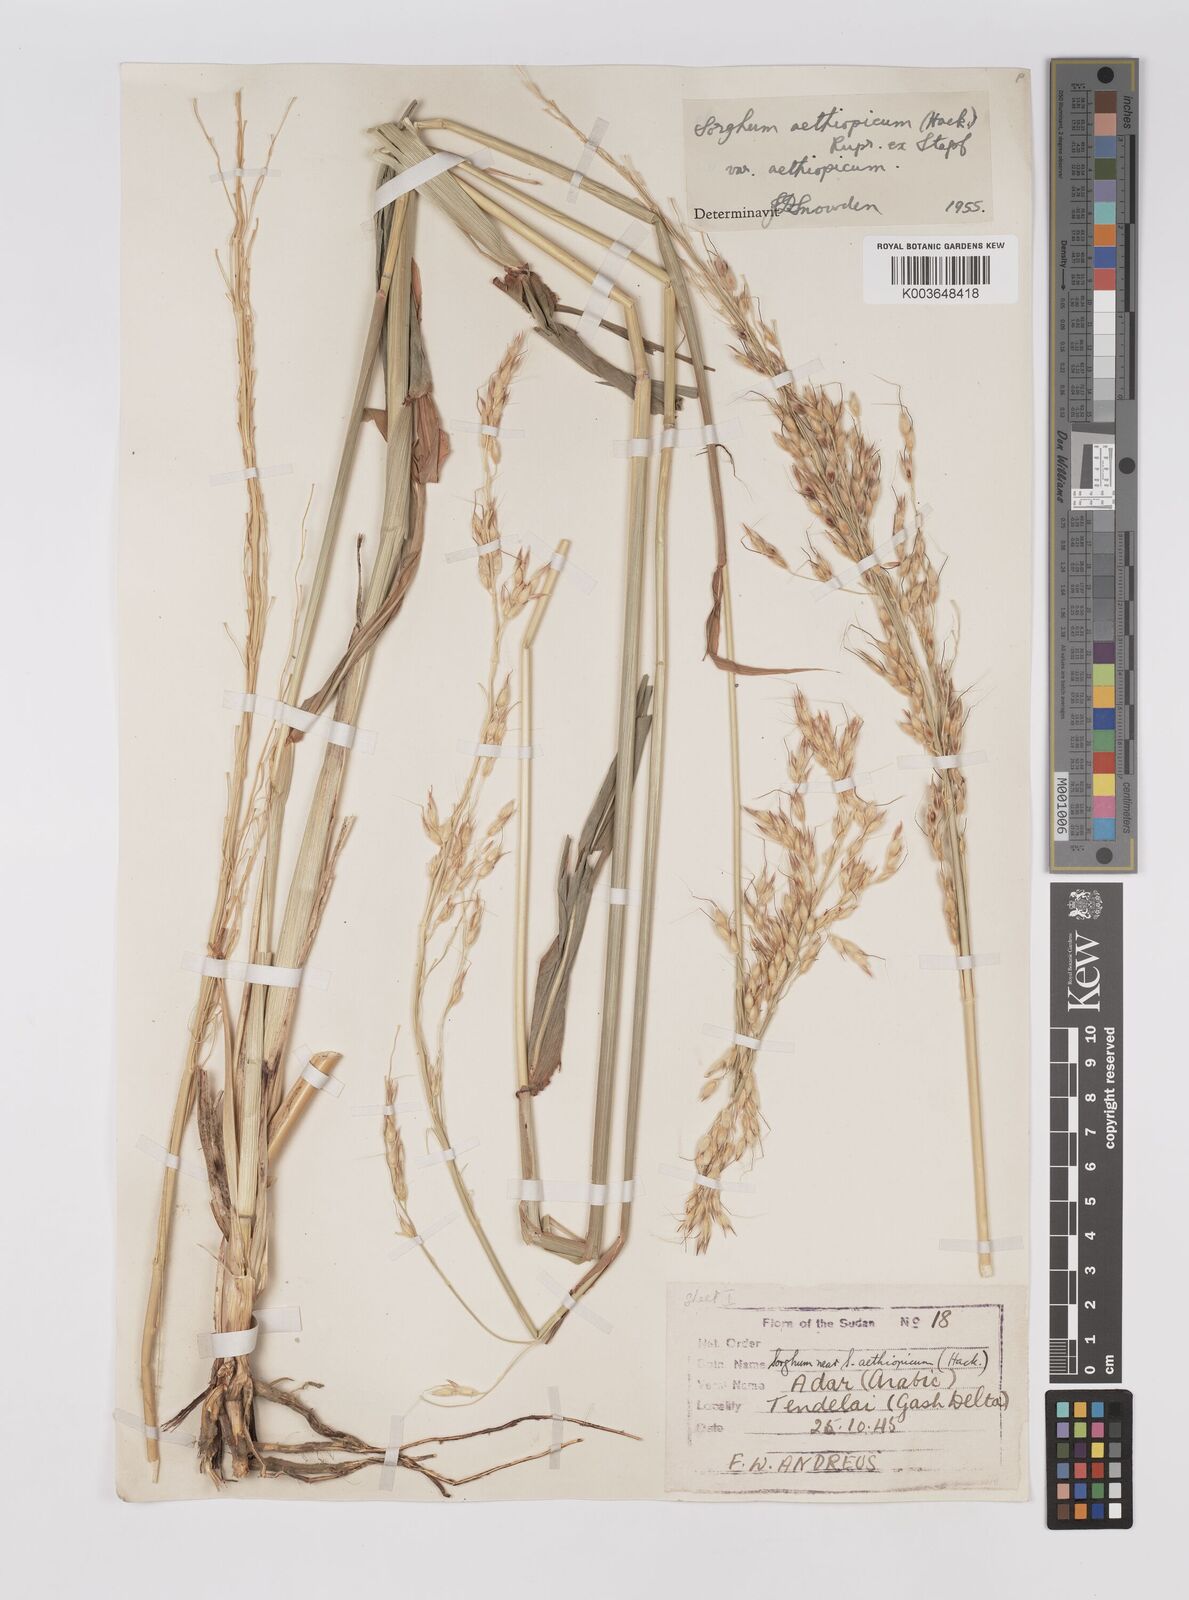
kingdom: Plantae
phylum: Tracheophyta
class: Liliopsida
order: Poales
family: Poaceae
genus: Sorghum
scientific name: Sorghum arundinaceum
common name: Sorghum
